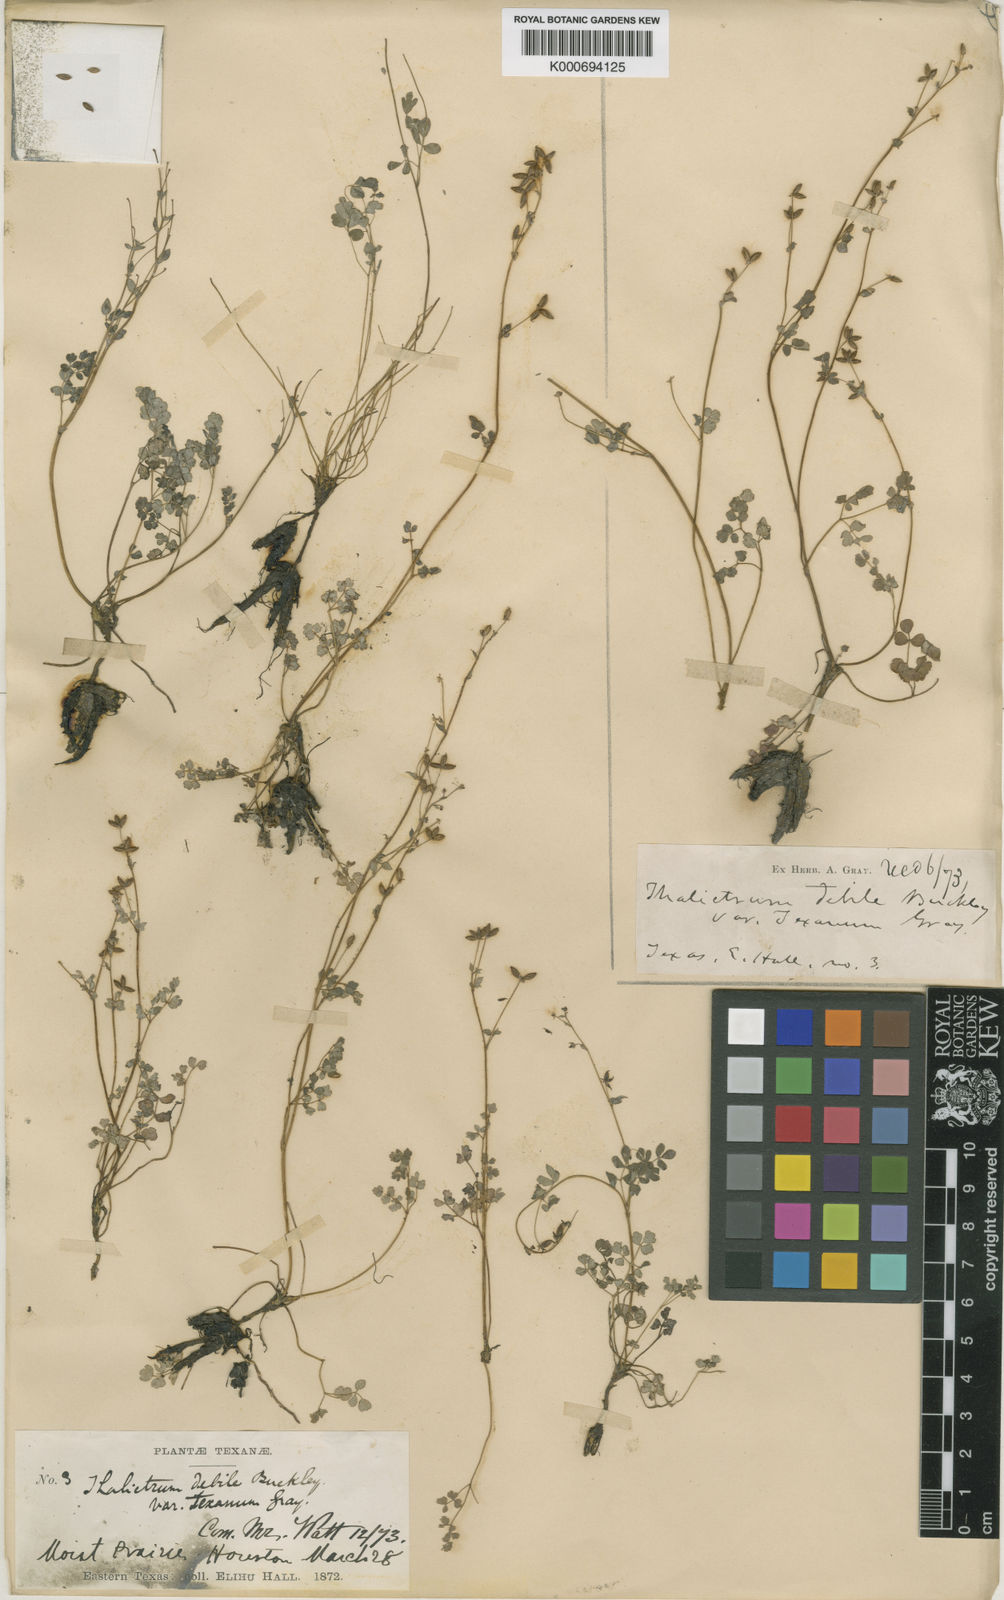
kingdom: Plantae
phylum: Tracheophyta
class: Magnoliopsida
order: Ranunculales
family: Ranunculaceae
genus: Thalictrum
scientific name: Thalictrum texanum
